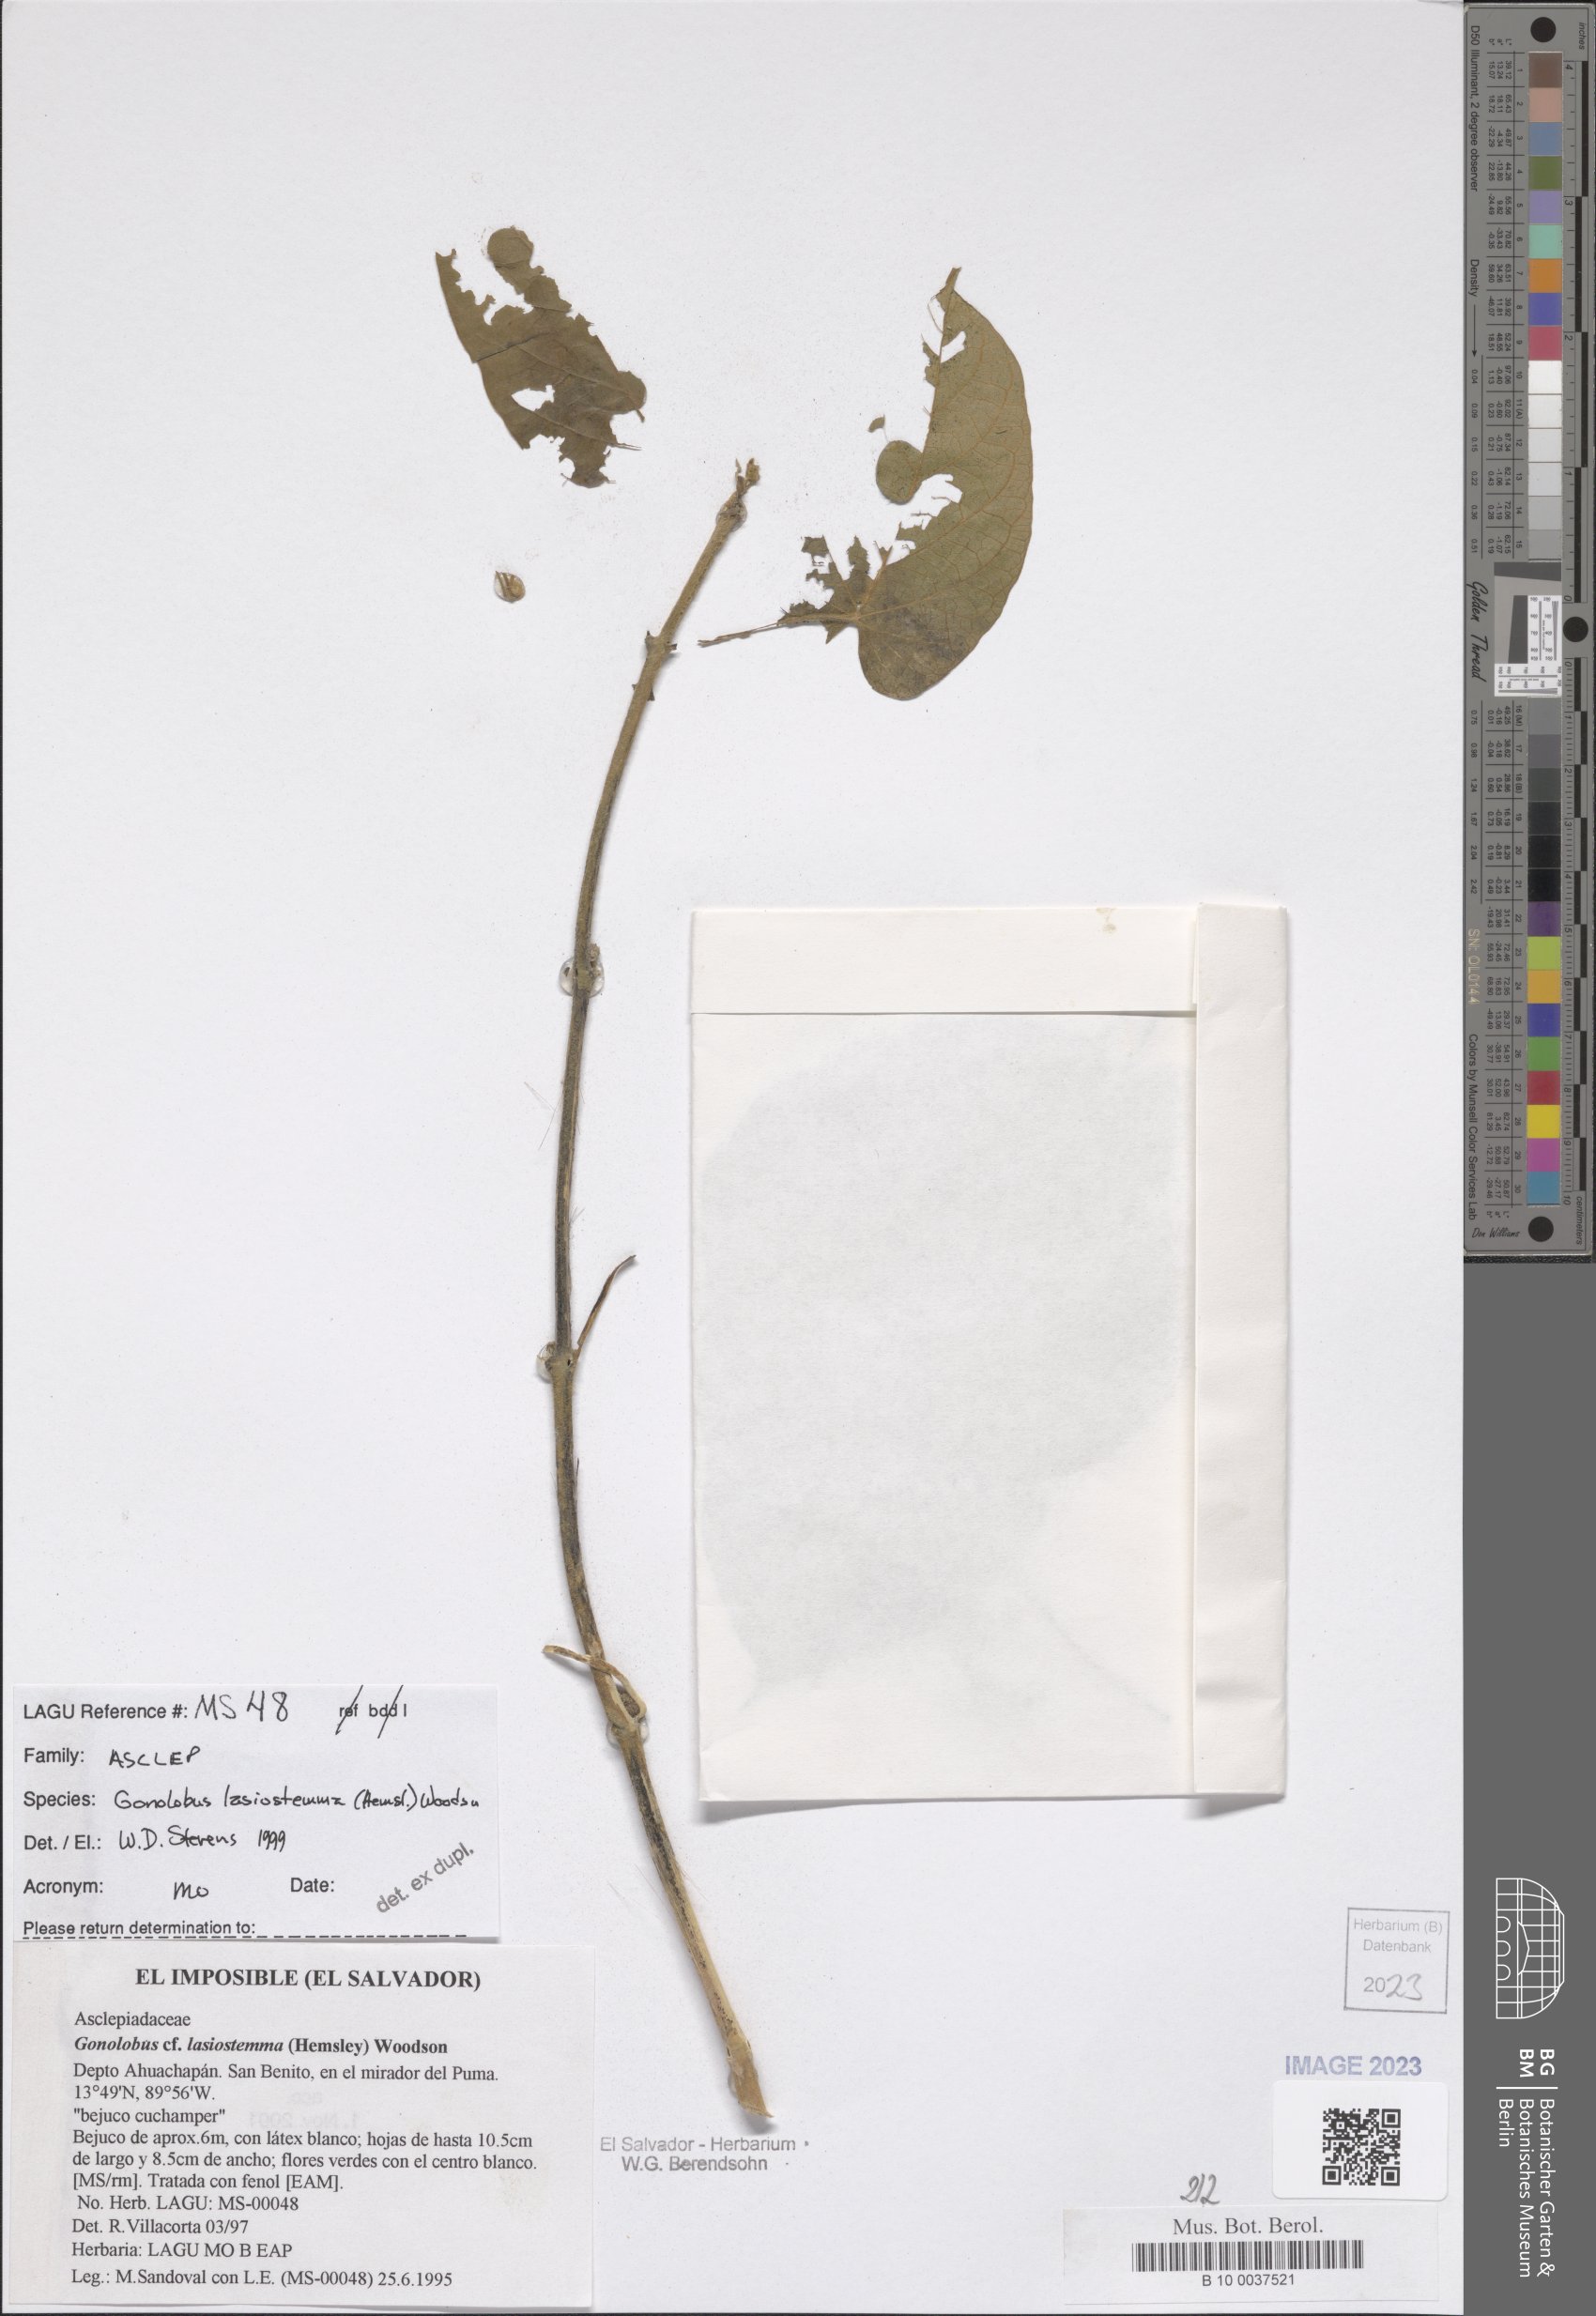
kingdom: Plantae
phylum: Tracheophyta
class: Magnoliopsida
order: Gentianales
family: Apocynaceae
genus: Gonolobus
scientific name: Gonolobus lasiostemma
